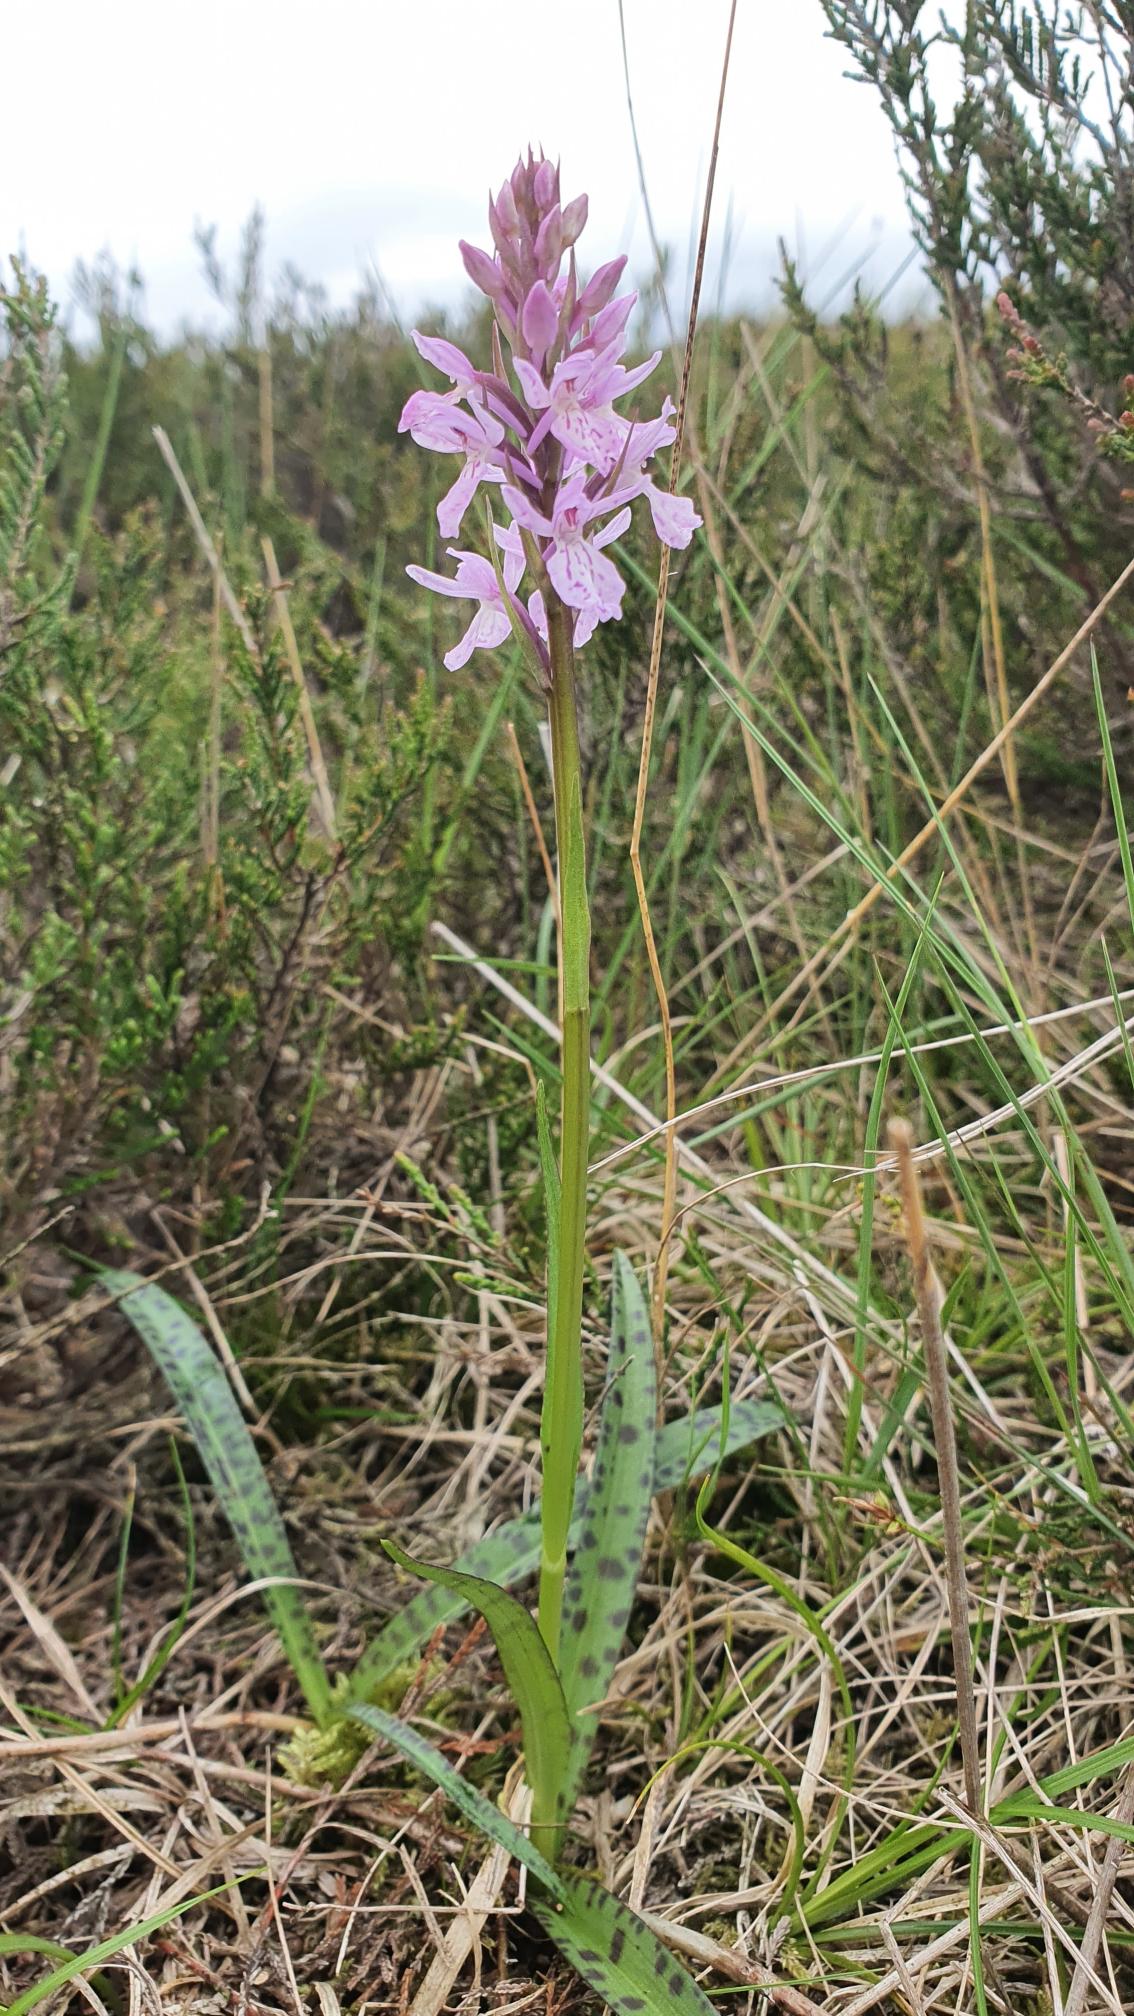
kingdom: Plantae
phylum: Tracheophyta
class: Liliopsida
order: Asparagales
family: Orchidaceae
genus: Dactylorhiza
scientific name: Dactylorhiza maculata
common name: Plettet gøgeurt
